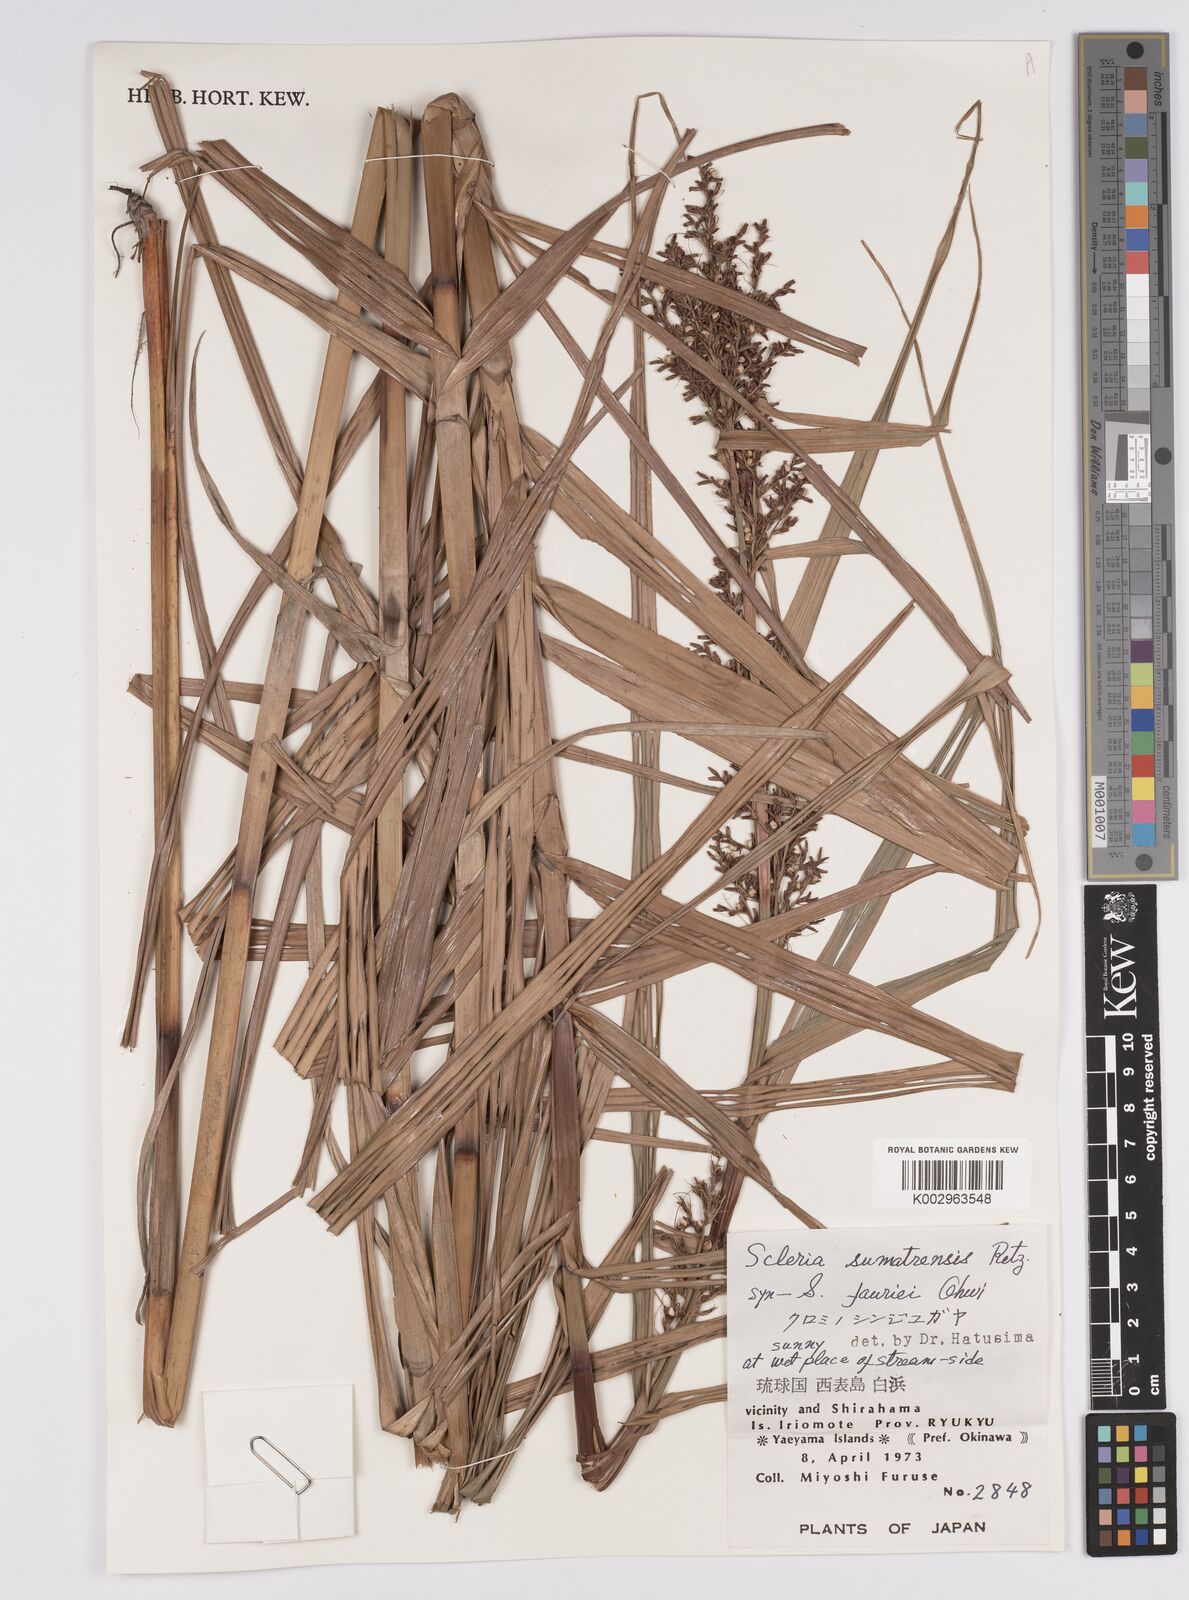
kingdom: Plantae
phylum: Tracheophyta
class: Liliopsida
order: Poales
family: Cyperaceae
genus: Scleria
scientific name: Scleria sumatrensis
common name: Sumatran scleria
